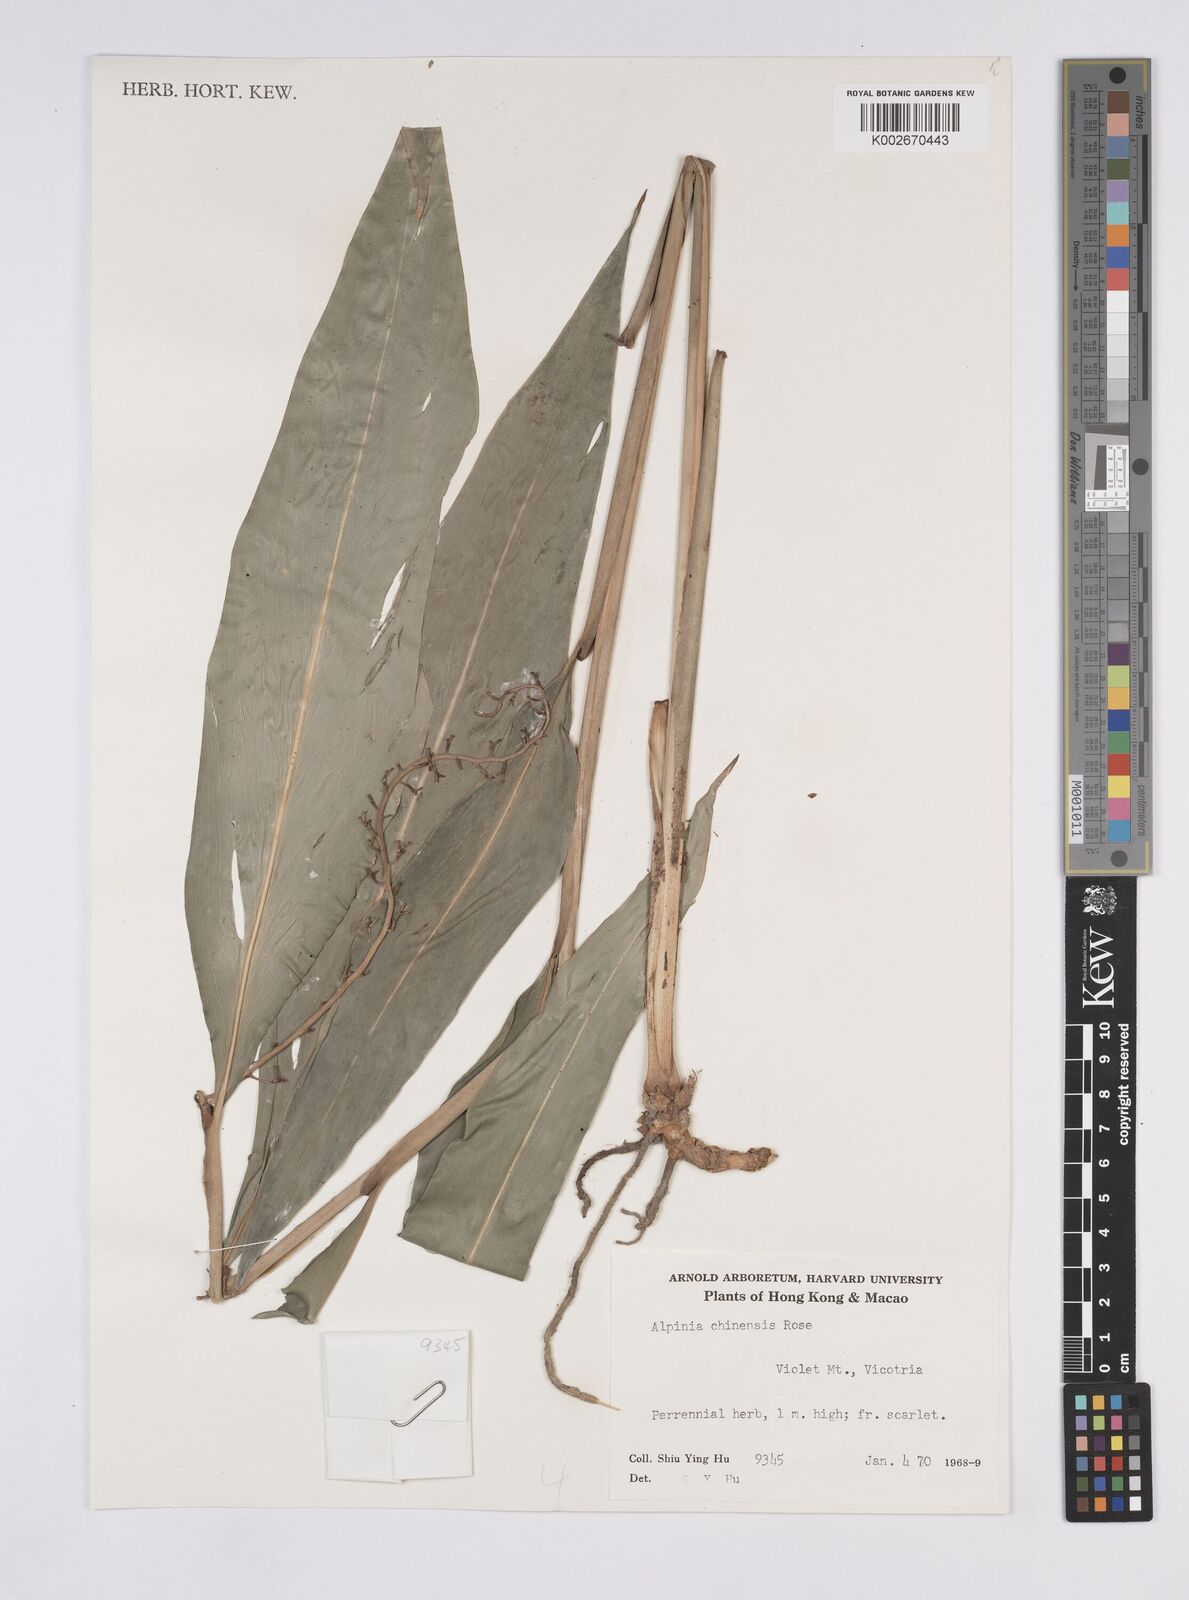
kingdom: Plantae
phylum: Tracheophyta
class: Liliopsida
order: Zingiberales
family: Zingiberaceae
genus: Alpinia
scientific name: Alpinia chinensis
